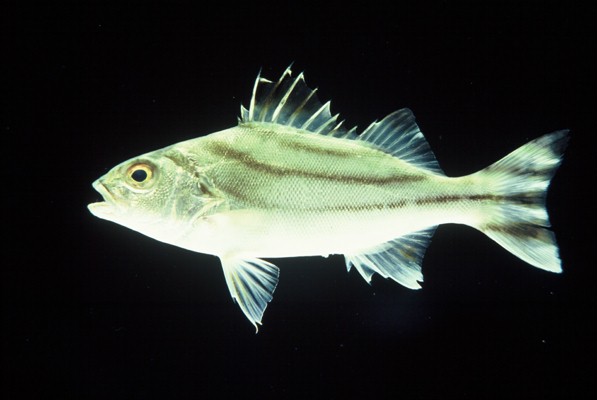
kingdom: Animalia
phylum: Chordata
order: Perciformes
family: Terapontidae
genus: Terapon
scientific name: Terapon jarbua
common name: Jarbua terapon
